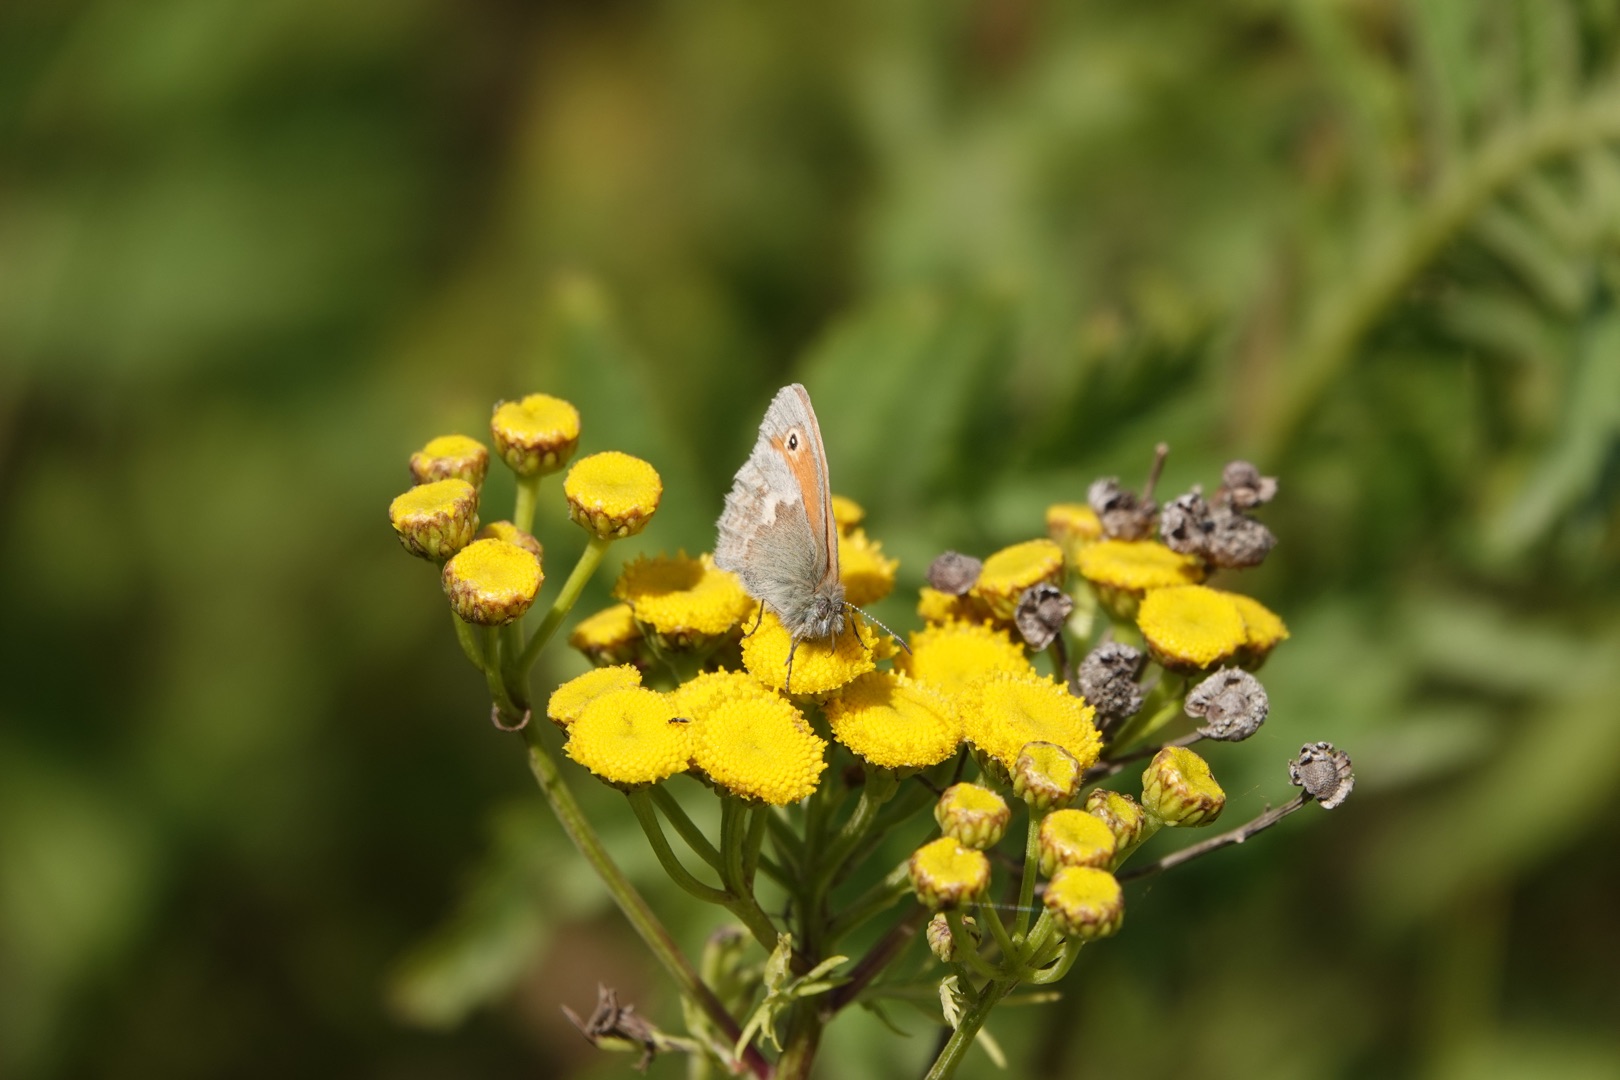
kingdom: Animalia
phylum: Arthropoda
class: Insecta
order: Lepidoptera
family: Nymphalidae
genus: Coenonympha
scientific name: Coenonympha pamphilus
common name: Okkergul randøje
